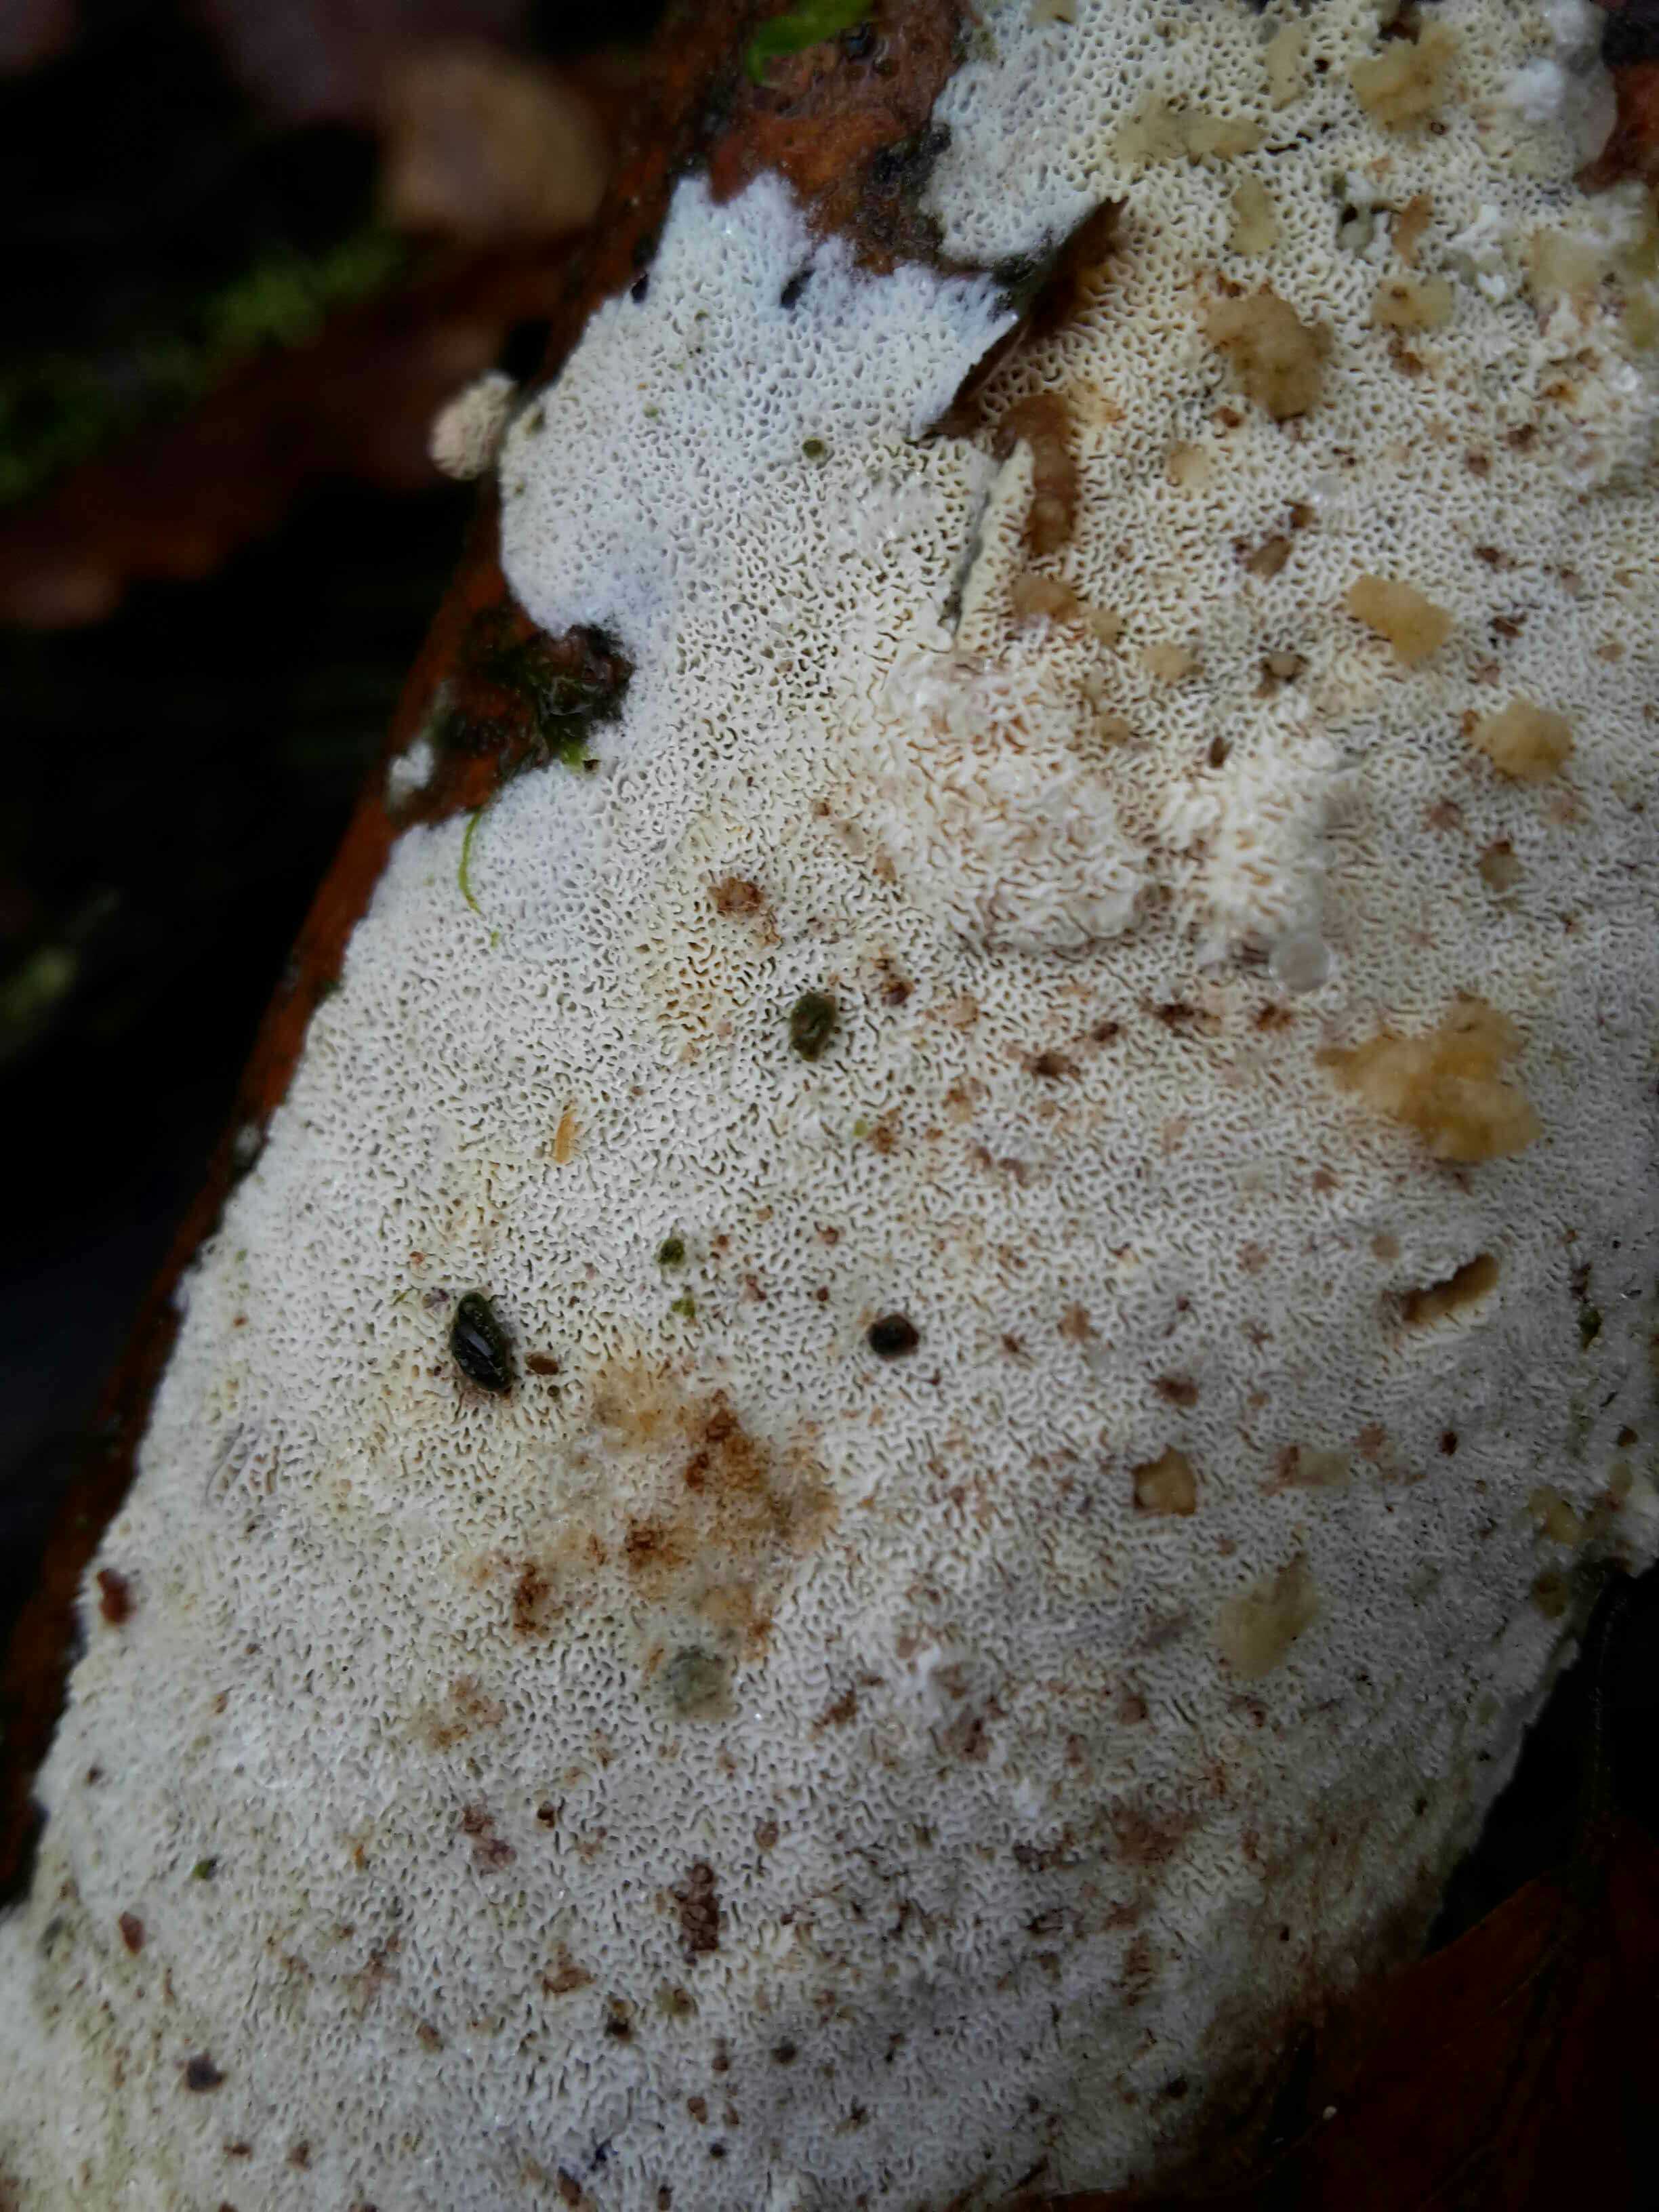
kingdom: Fungi
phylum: Basidiomycota
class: Agaricomycetes
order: Hymenochaetales
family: Schizoporaceae
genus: Xylodon
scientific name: Xylodon subtropicus
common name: labyrint-tandsvamp
